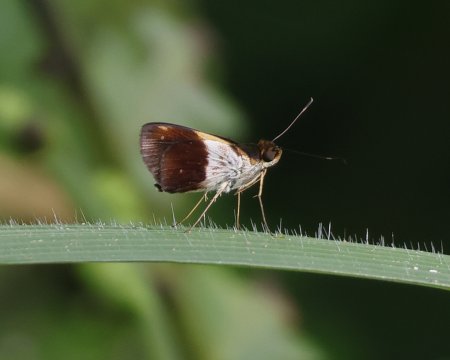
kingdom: Animalia
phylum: Arthropoda
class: Insecta
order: Lepidoptera
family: Hesperiidae
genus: Justinia
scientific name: Justinia norda
